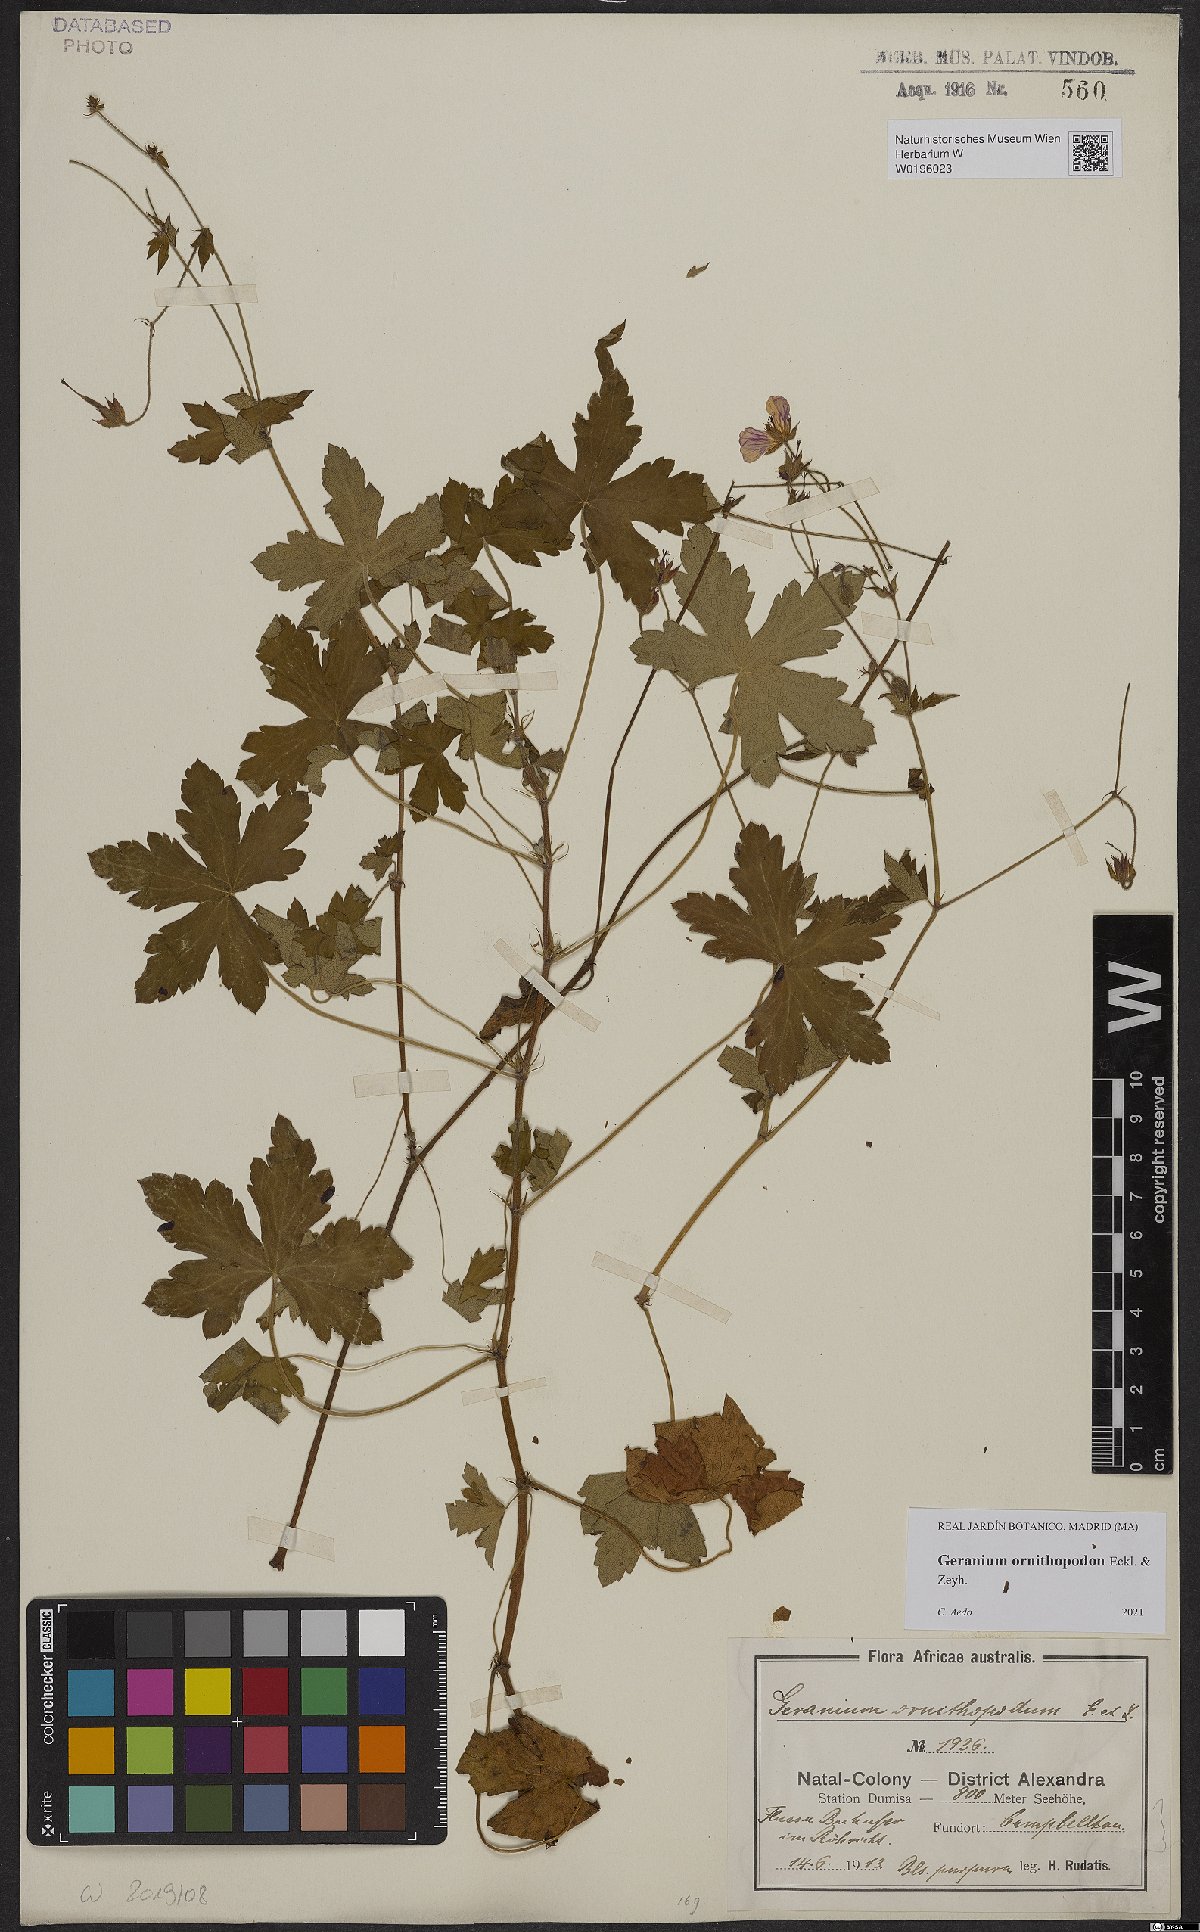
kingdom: Plantae
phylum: Tracheophyta
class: Magnoliopsida
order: Geraniales
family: Geraniaceae
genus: Geranium
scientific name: Geranium ornithopodon
